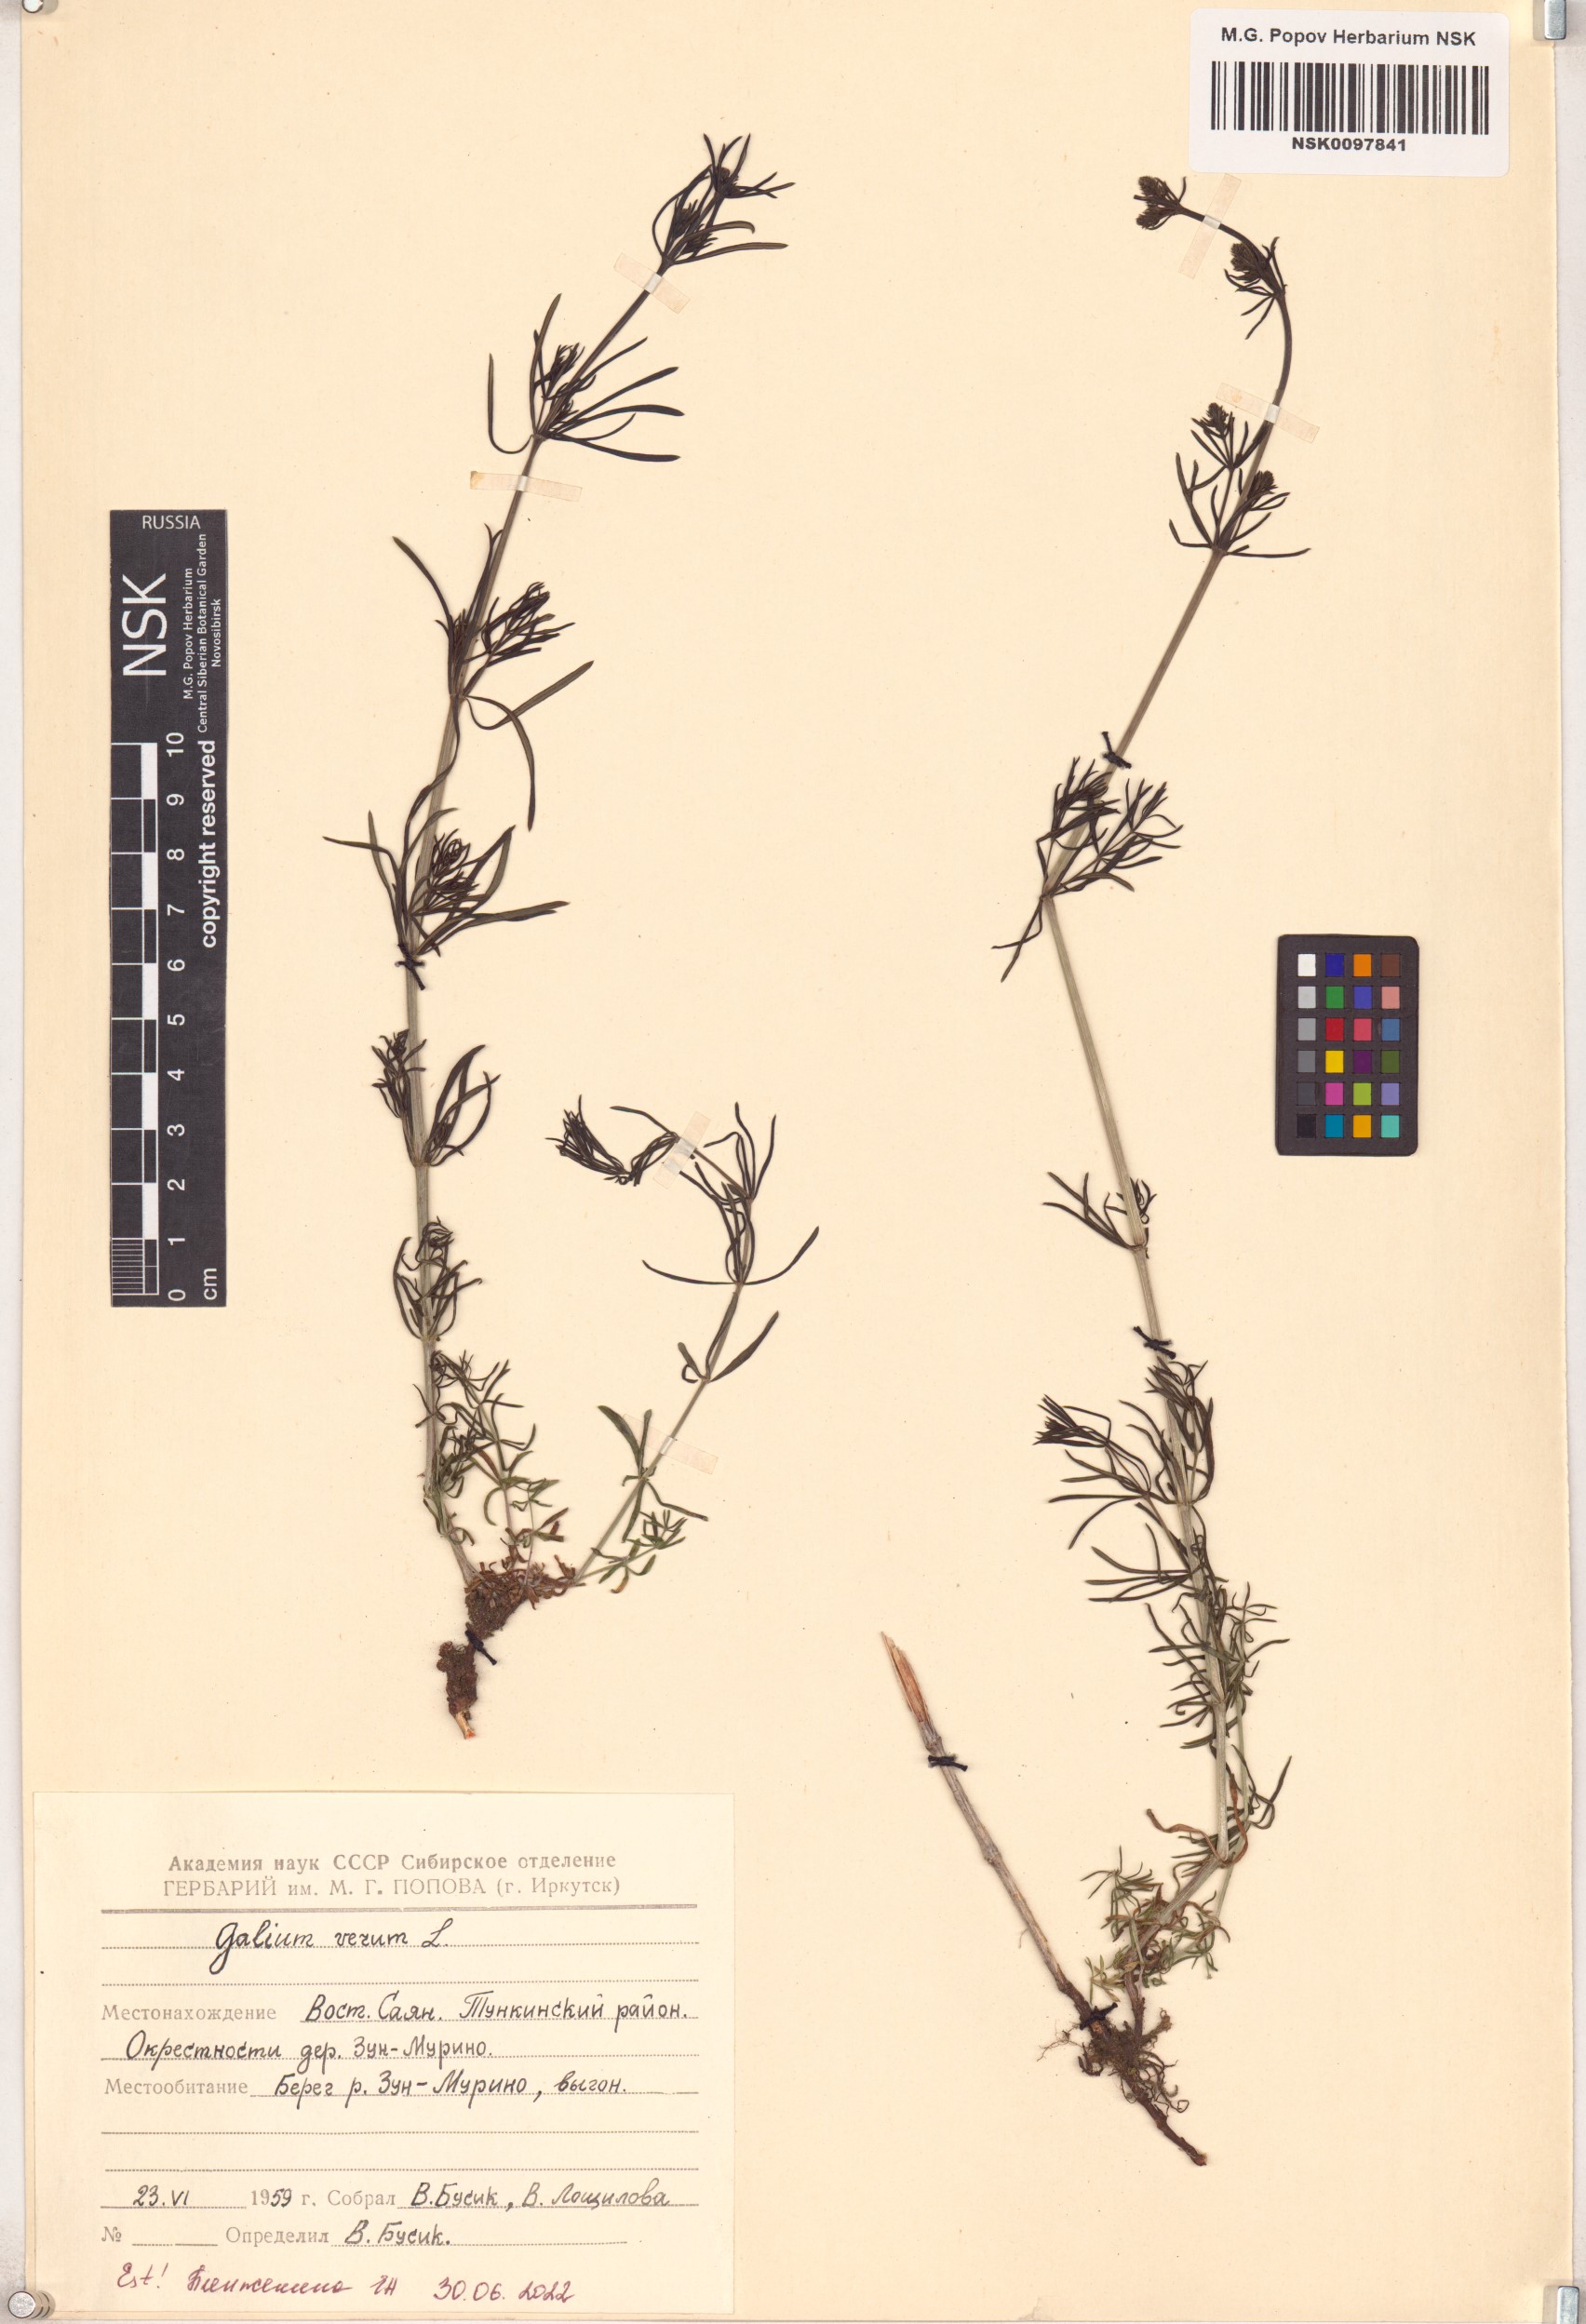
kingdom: Plantae
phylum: Tracheophyta
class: Magnoliopsida
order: Gentianales
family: Rubiaceae
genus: Galium
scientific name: Galium verum
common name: Lady's bedstraw
